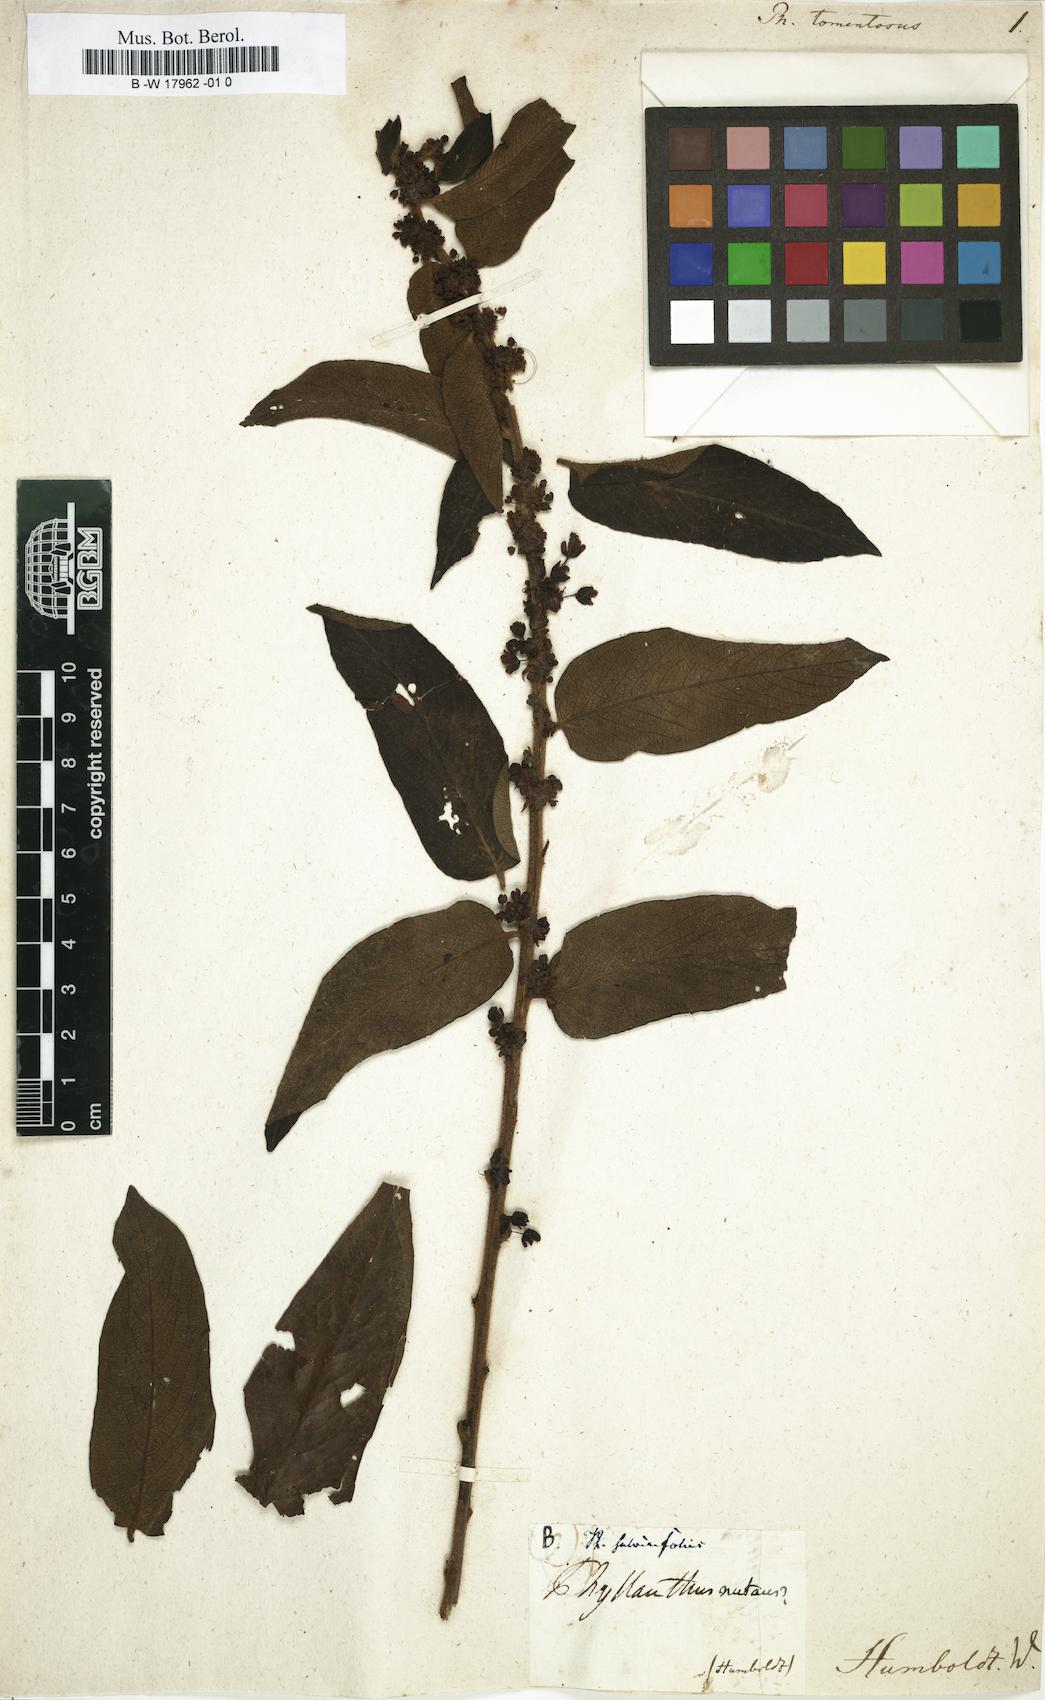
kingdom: Plantae
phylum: Tracheophyta
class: Magnoliopsida
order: Malpighiales
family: Phyllanthaceae
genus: Glochidion
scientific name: Glochidion
